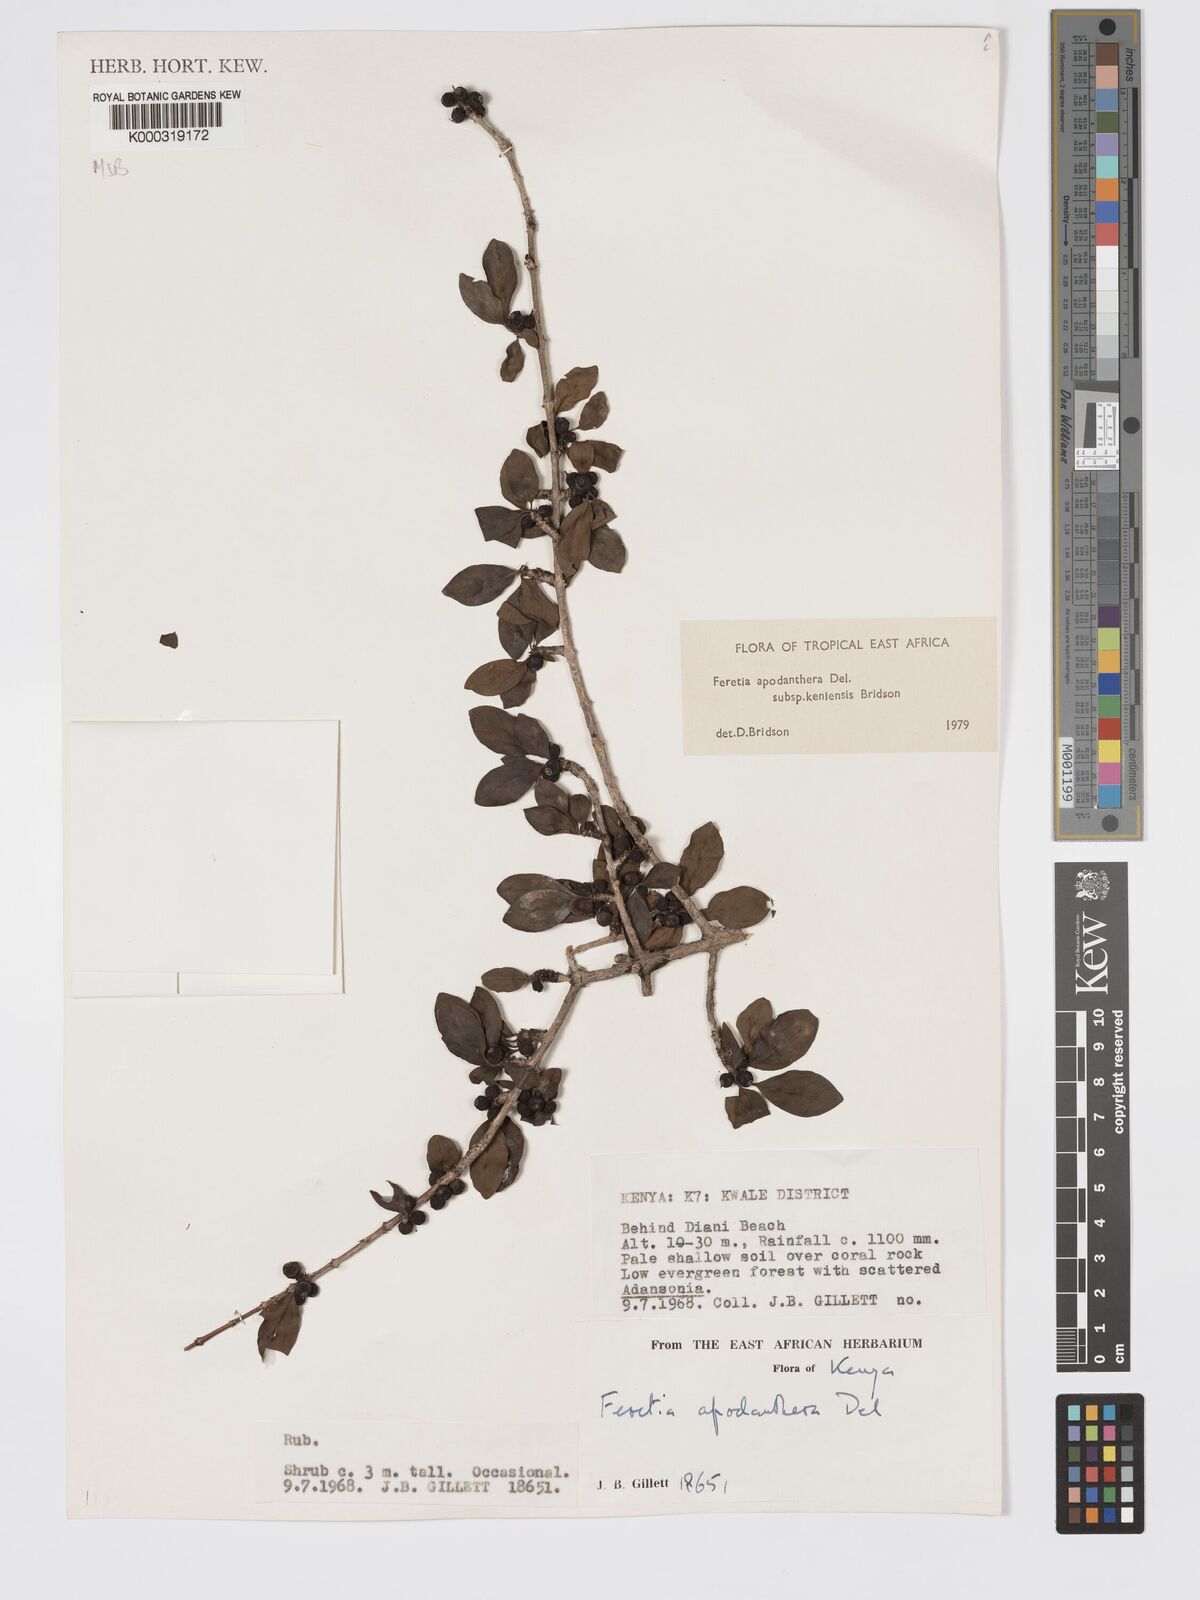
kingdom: Plantae
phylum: Tracheophyta
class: Magnoliopsida
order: Gentianales
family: Rubiaceae
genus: Feretia
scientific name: Feretia apodanthera
